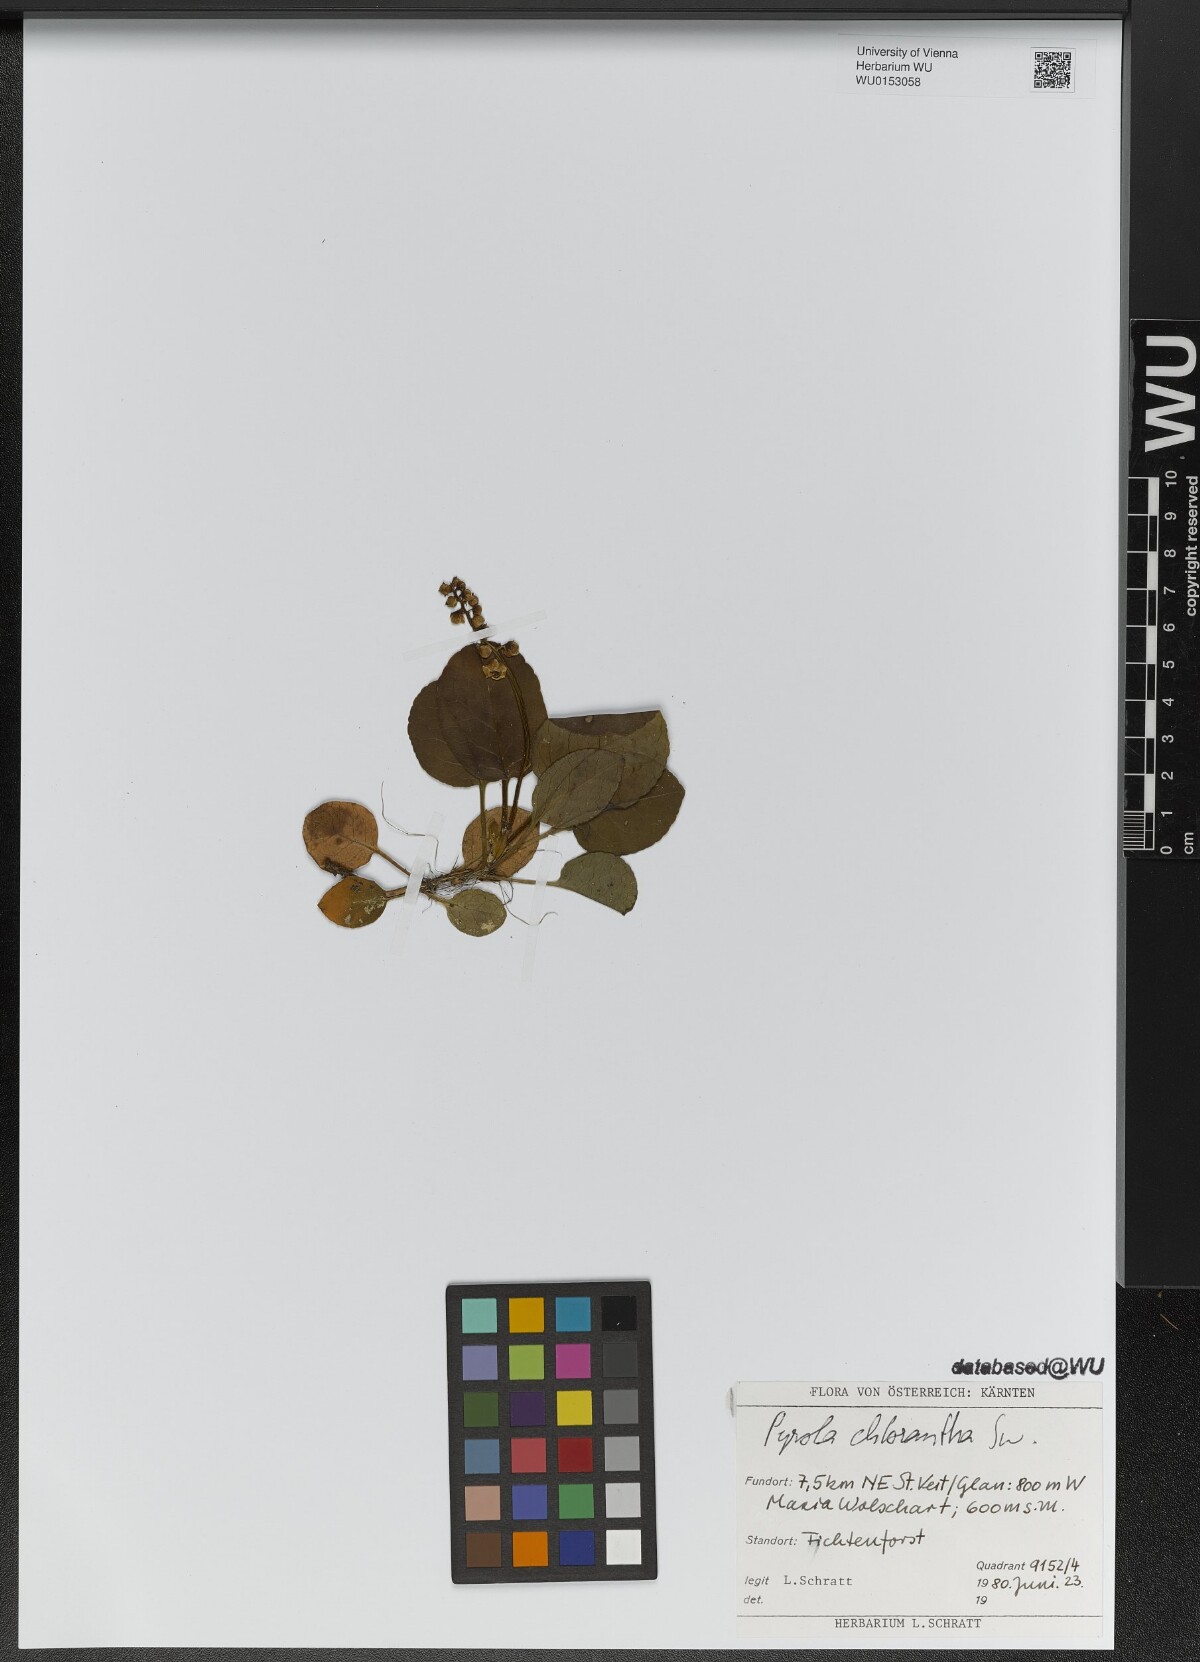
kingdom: Plantae
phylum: Tracheophyta
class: Magnoliopsida
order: Ericales
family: Ericaceae
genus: Pyrola
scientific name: Pyrola chlorantha
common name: Green wintergreen
